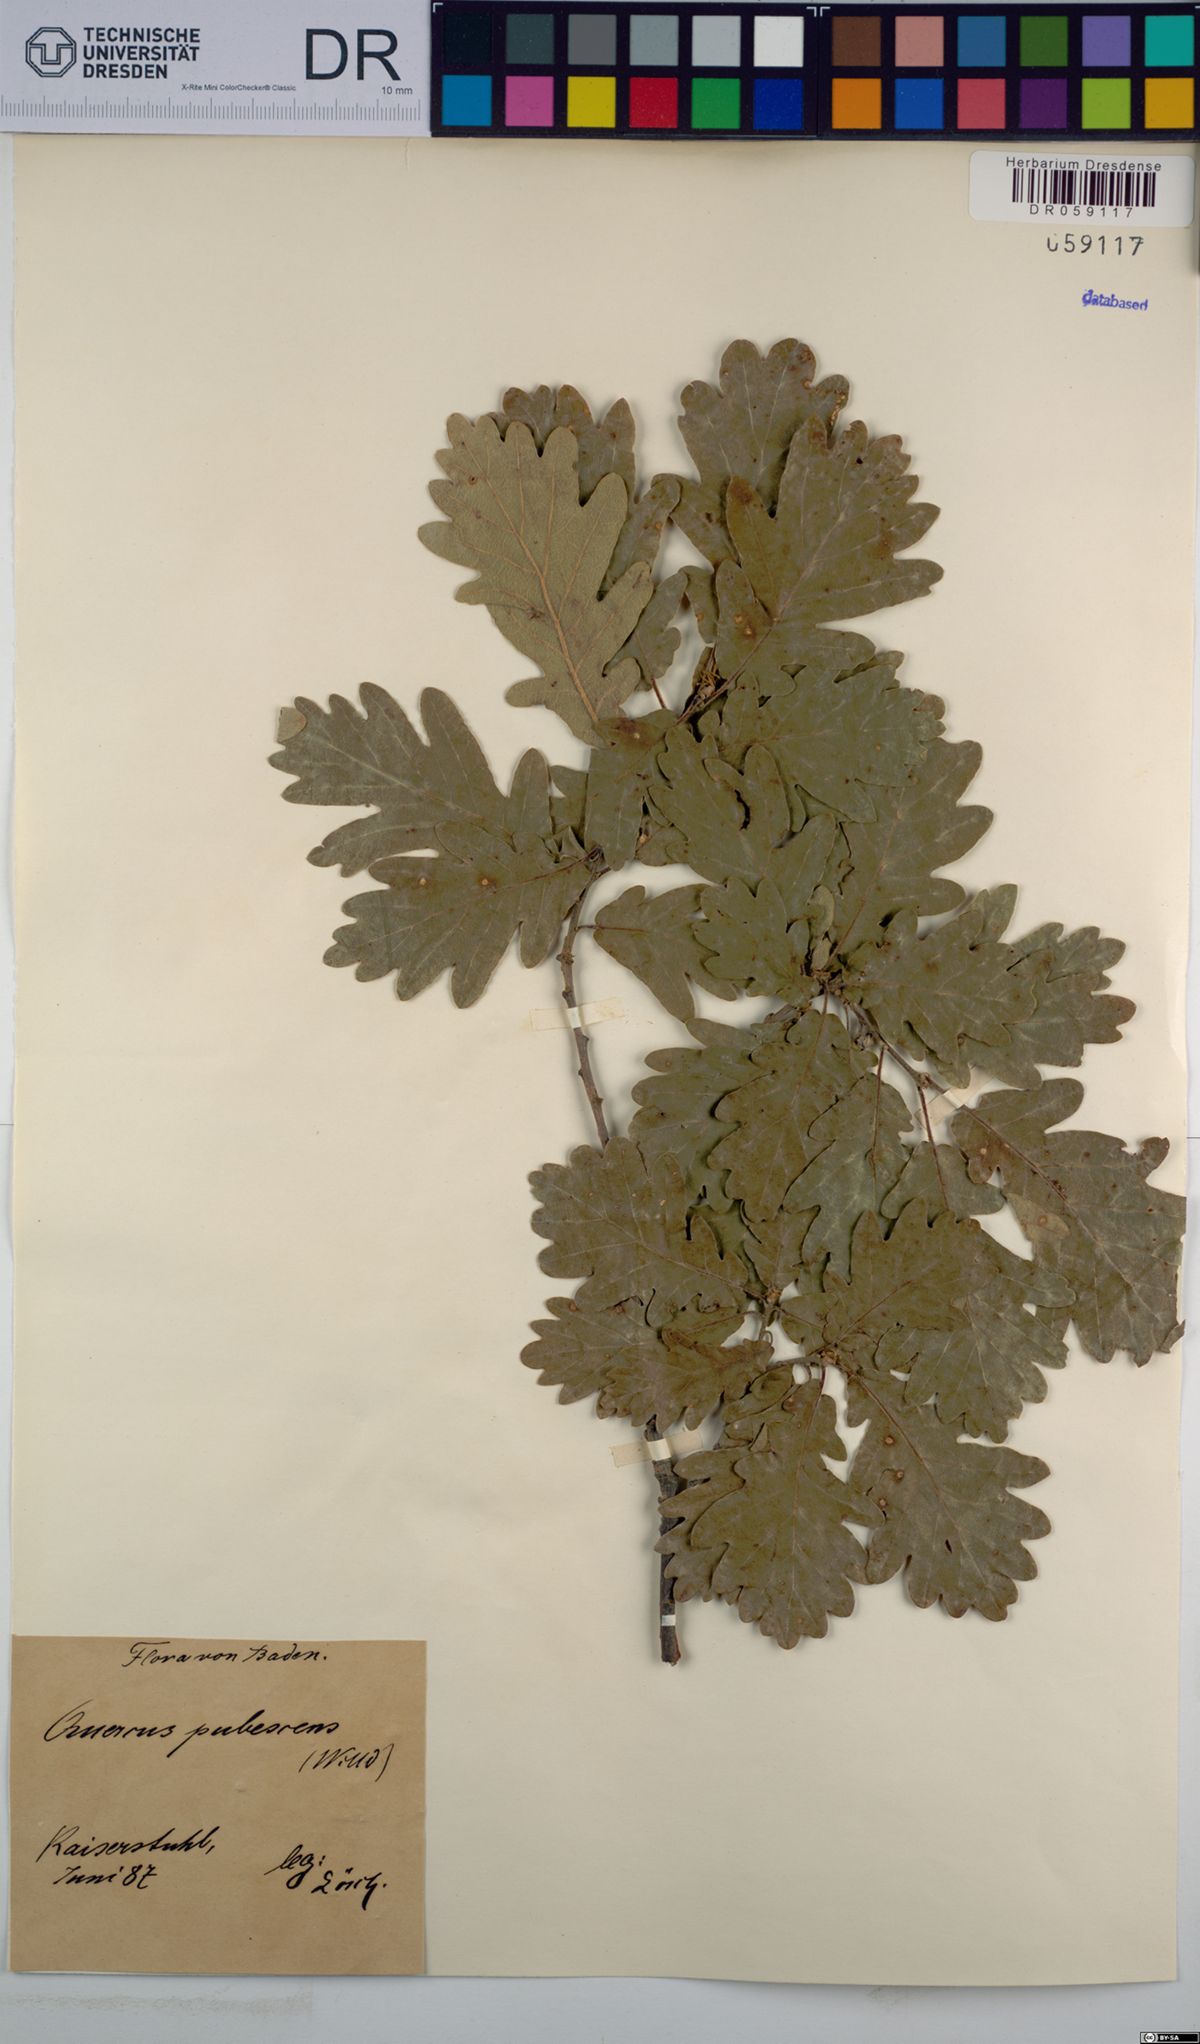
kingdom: Plantae
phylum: Tracheophyta
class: Magnoliopsida
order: Fagales
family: Fagaceae
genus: Quercus
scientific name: Quercus pubescens
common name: Downy oak
